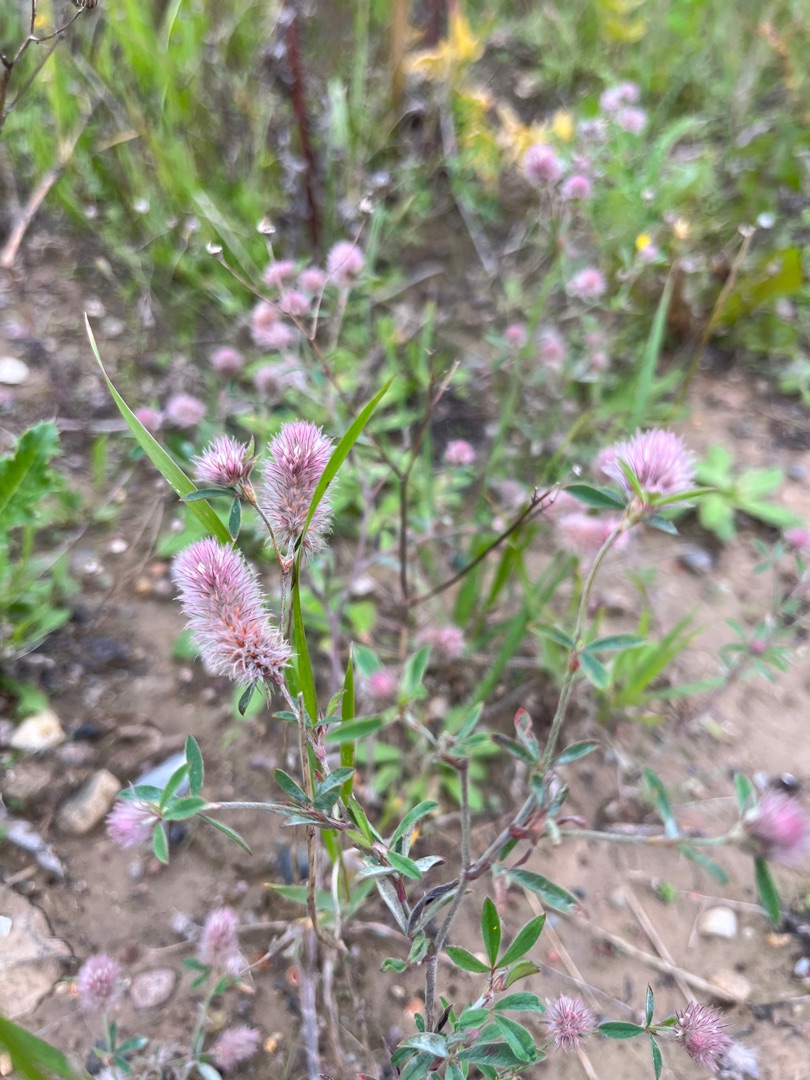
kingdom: Plantae
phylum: Tracheophyta
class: Magnoliopsida
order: Fabales
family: Fabaceae
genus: Trifolium
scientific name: Trifolium arvense
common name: Hare-kløver
